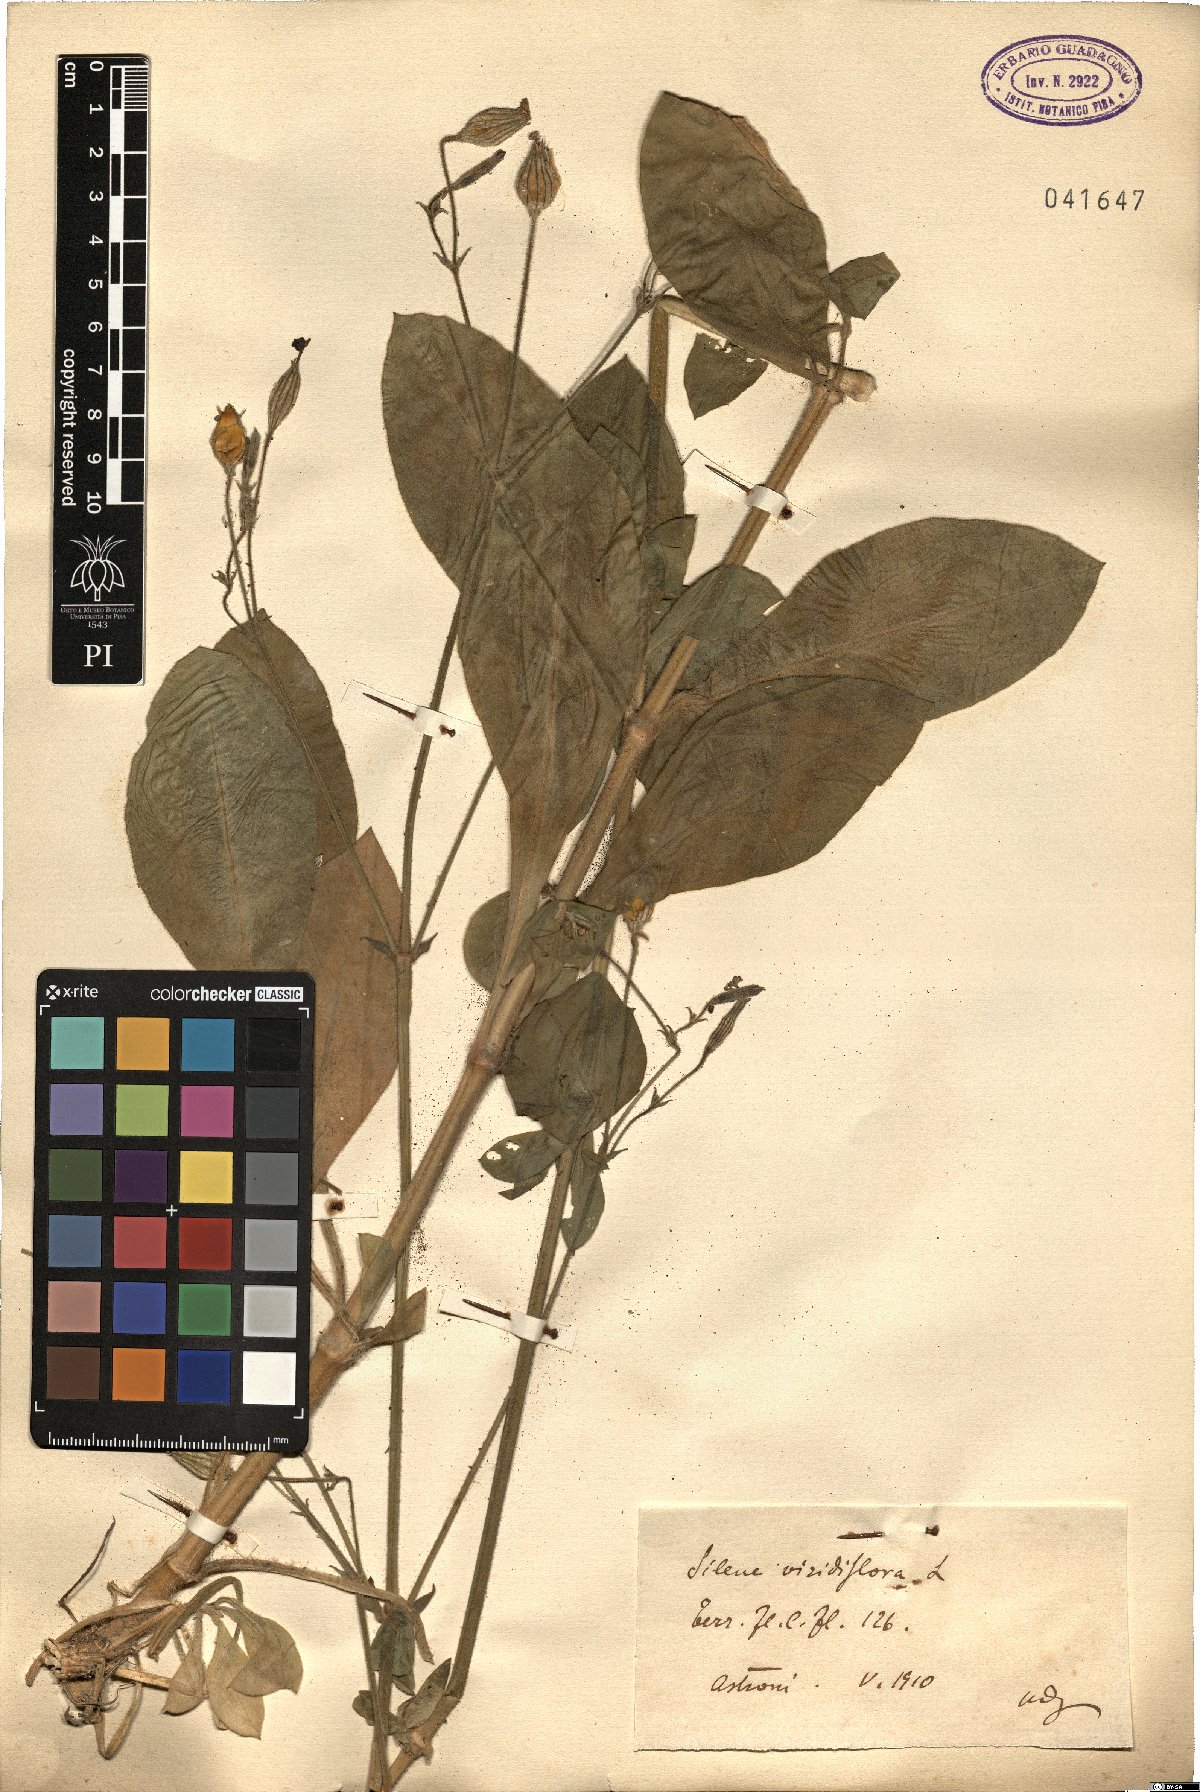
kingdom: Plantae
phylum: Tracheophyta
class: Magnoliopsida
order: Caryophyllales
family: Caryophyllaceae
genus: Silene
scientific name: Silene viridiflora
